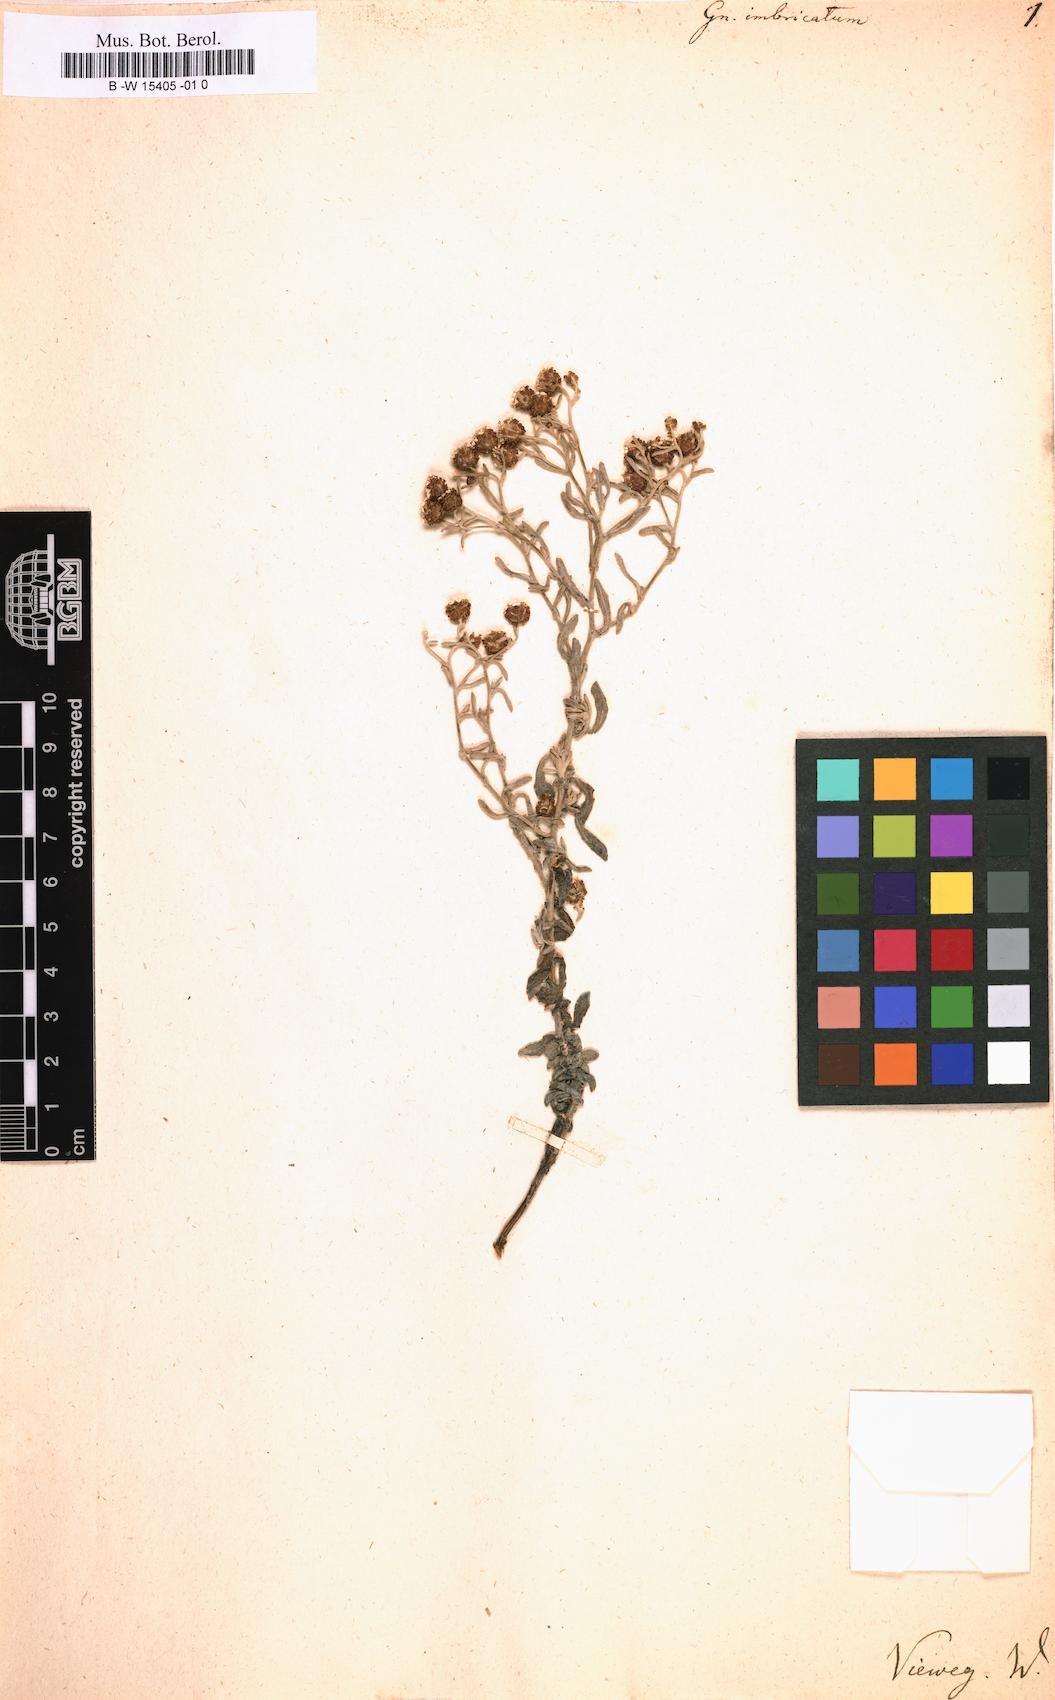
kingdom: Plantae
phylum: Tracheophyta
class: Magnoliopsida
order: Asterales
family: Asteraceae
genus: Helichrysum
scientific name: Helichrysum cochleariforme
